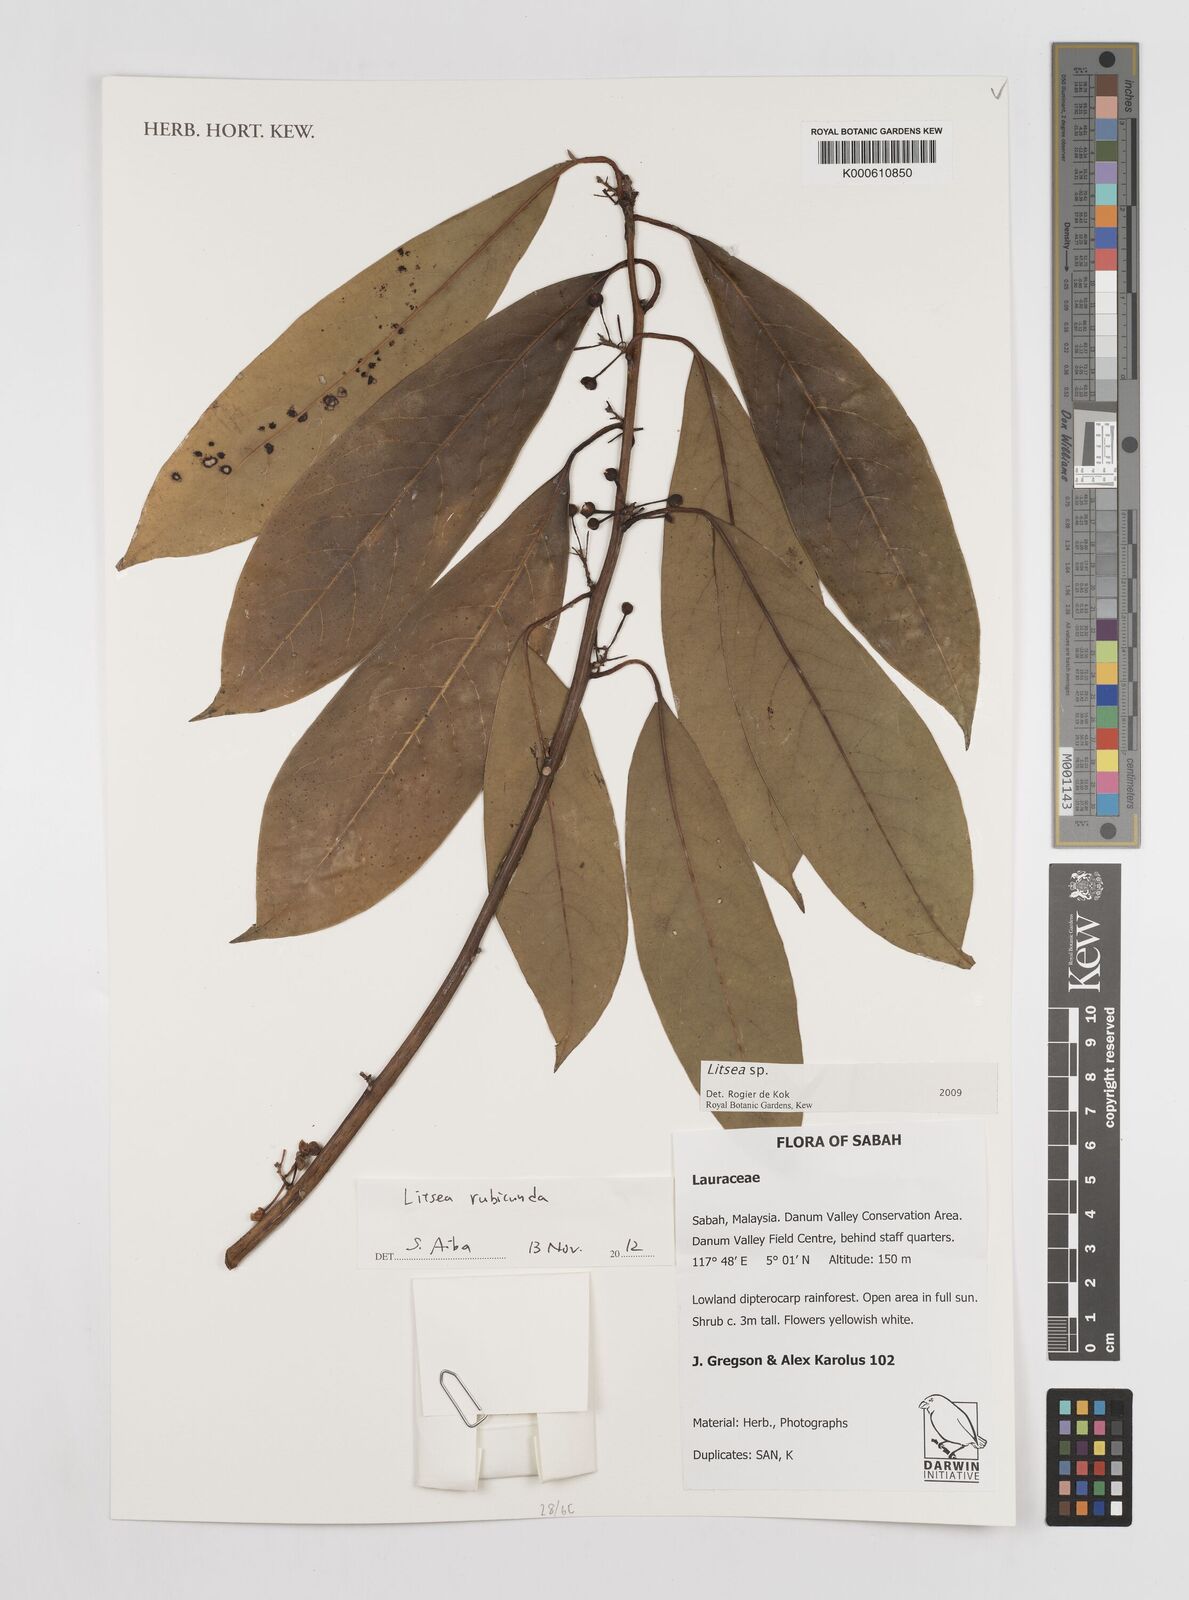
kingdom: Plantae
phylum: Tracheophyta
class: Magnoliopsida
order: Laurales
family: Lauraceae
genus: Litsea
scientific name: Litsea
